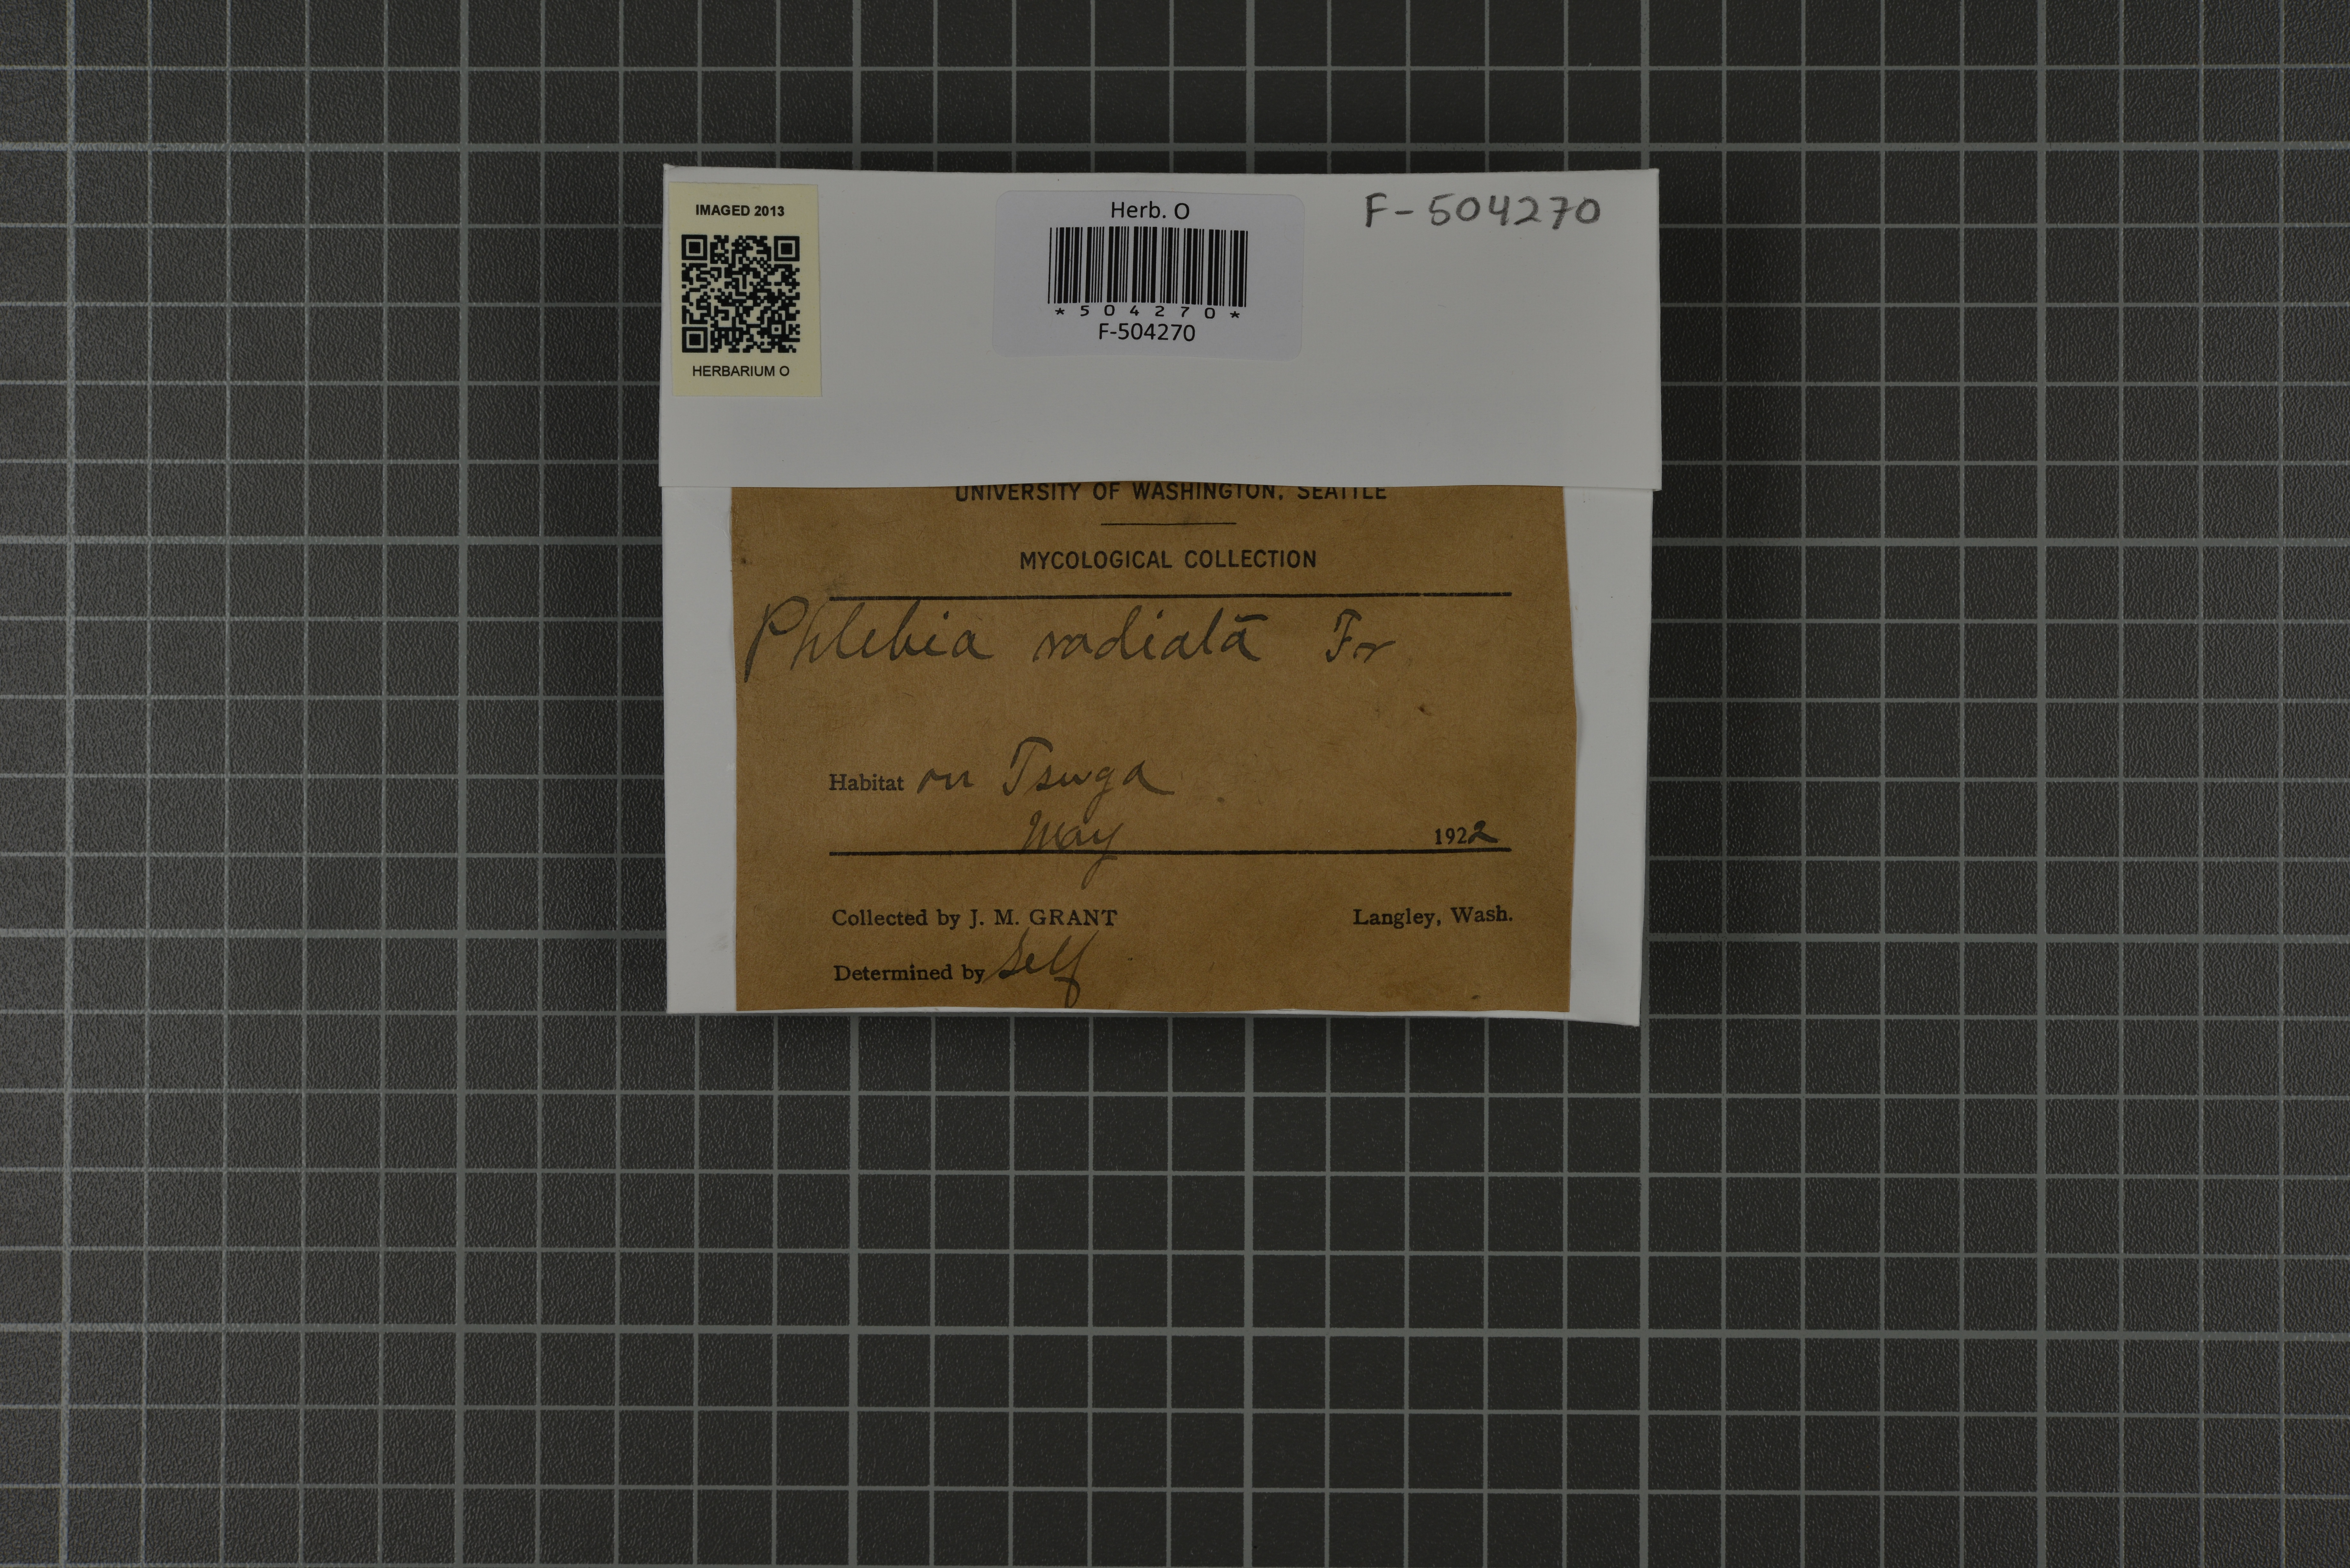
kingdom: Fungi
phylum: Basidiomycota
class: Agaricomycetes
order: Polyporales
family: Meruliaceae
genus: Phlebia
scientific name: Phlebia radiata
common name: Wrinkled crust
